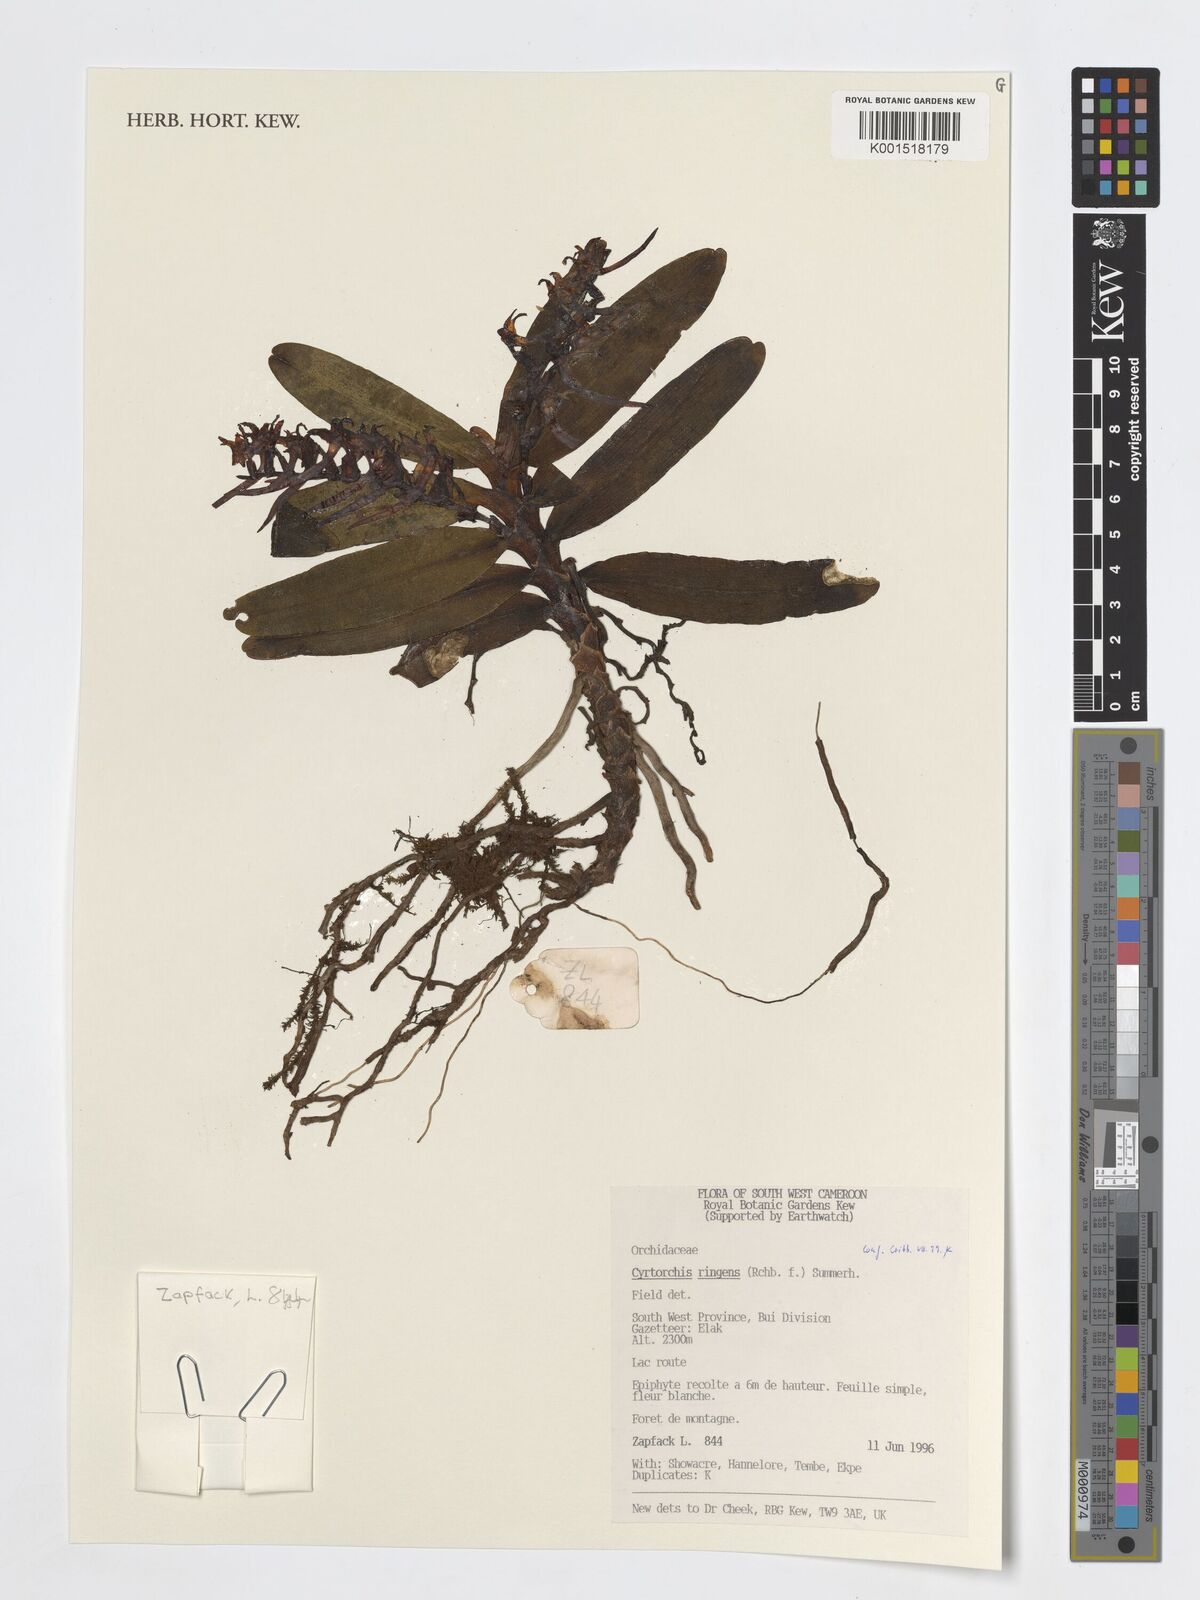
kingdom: Plantae
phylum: Tracheophyta
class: Liliopsida
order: Asparagales
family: Orchidaceae
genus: Cyrtorchis
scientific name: Cyrtorchis ringens
